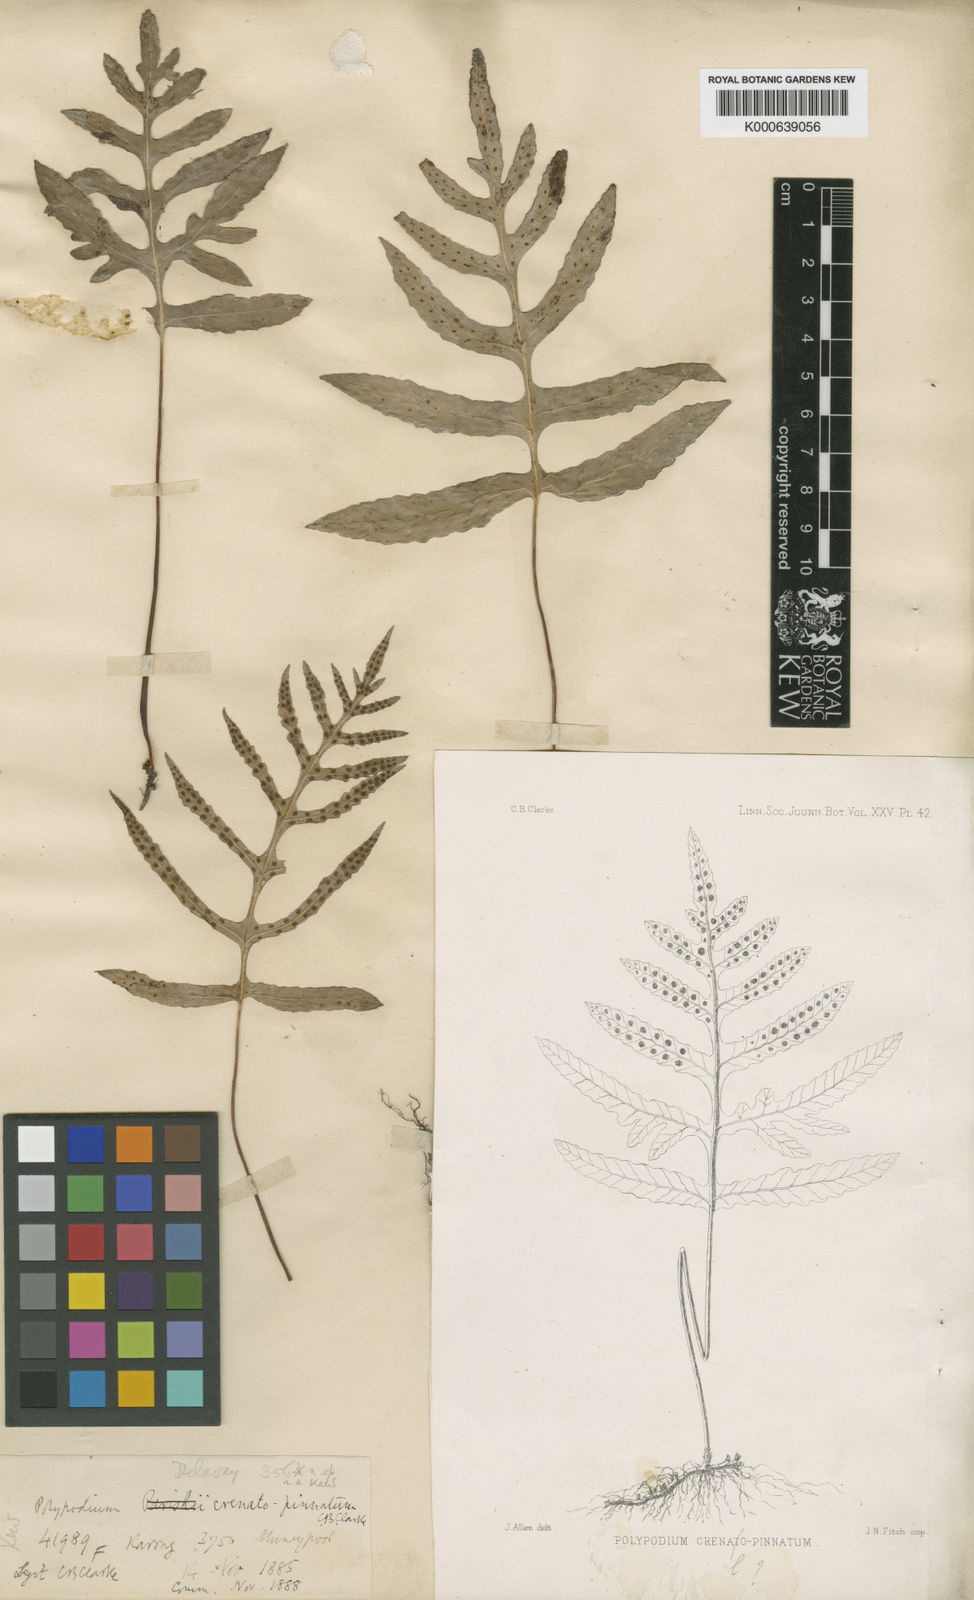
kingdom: Plantae
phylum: Tracheophyta
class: Polypodiopsida
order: Polypodiales
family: Polypodiaceae
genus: Selliguea
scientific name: Selliguea
